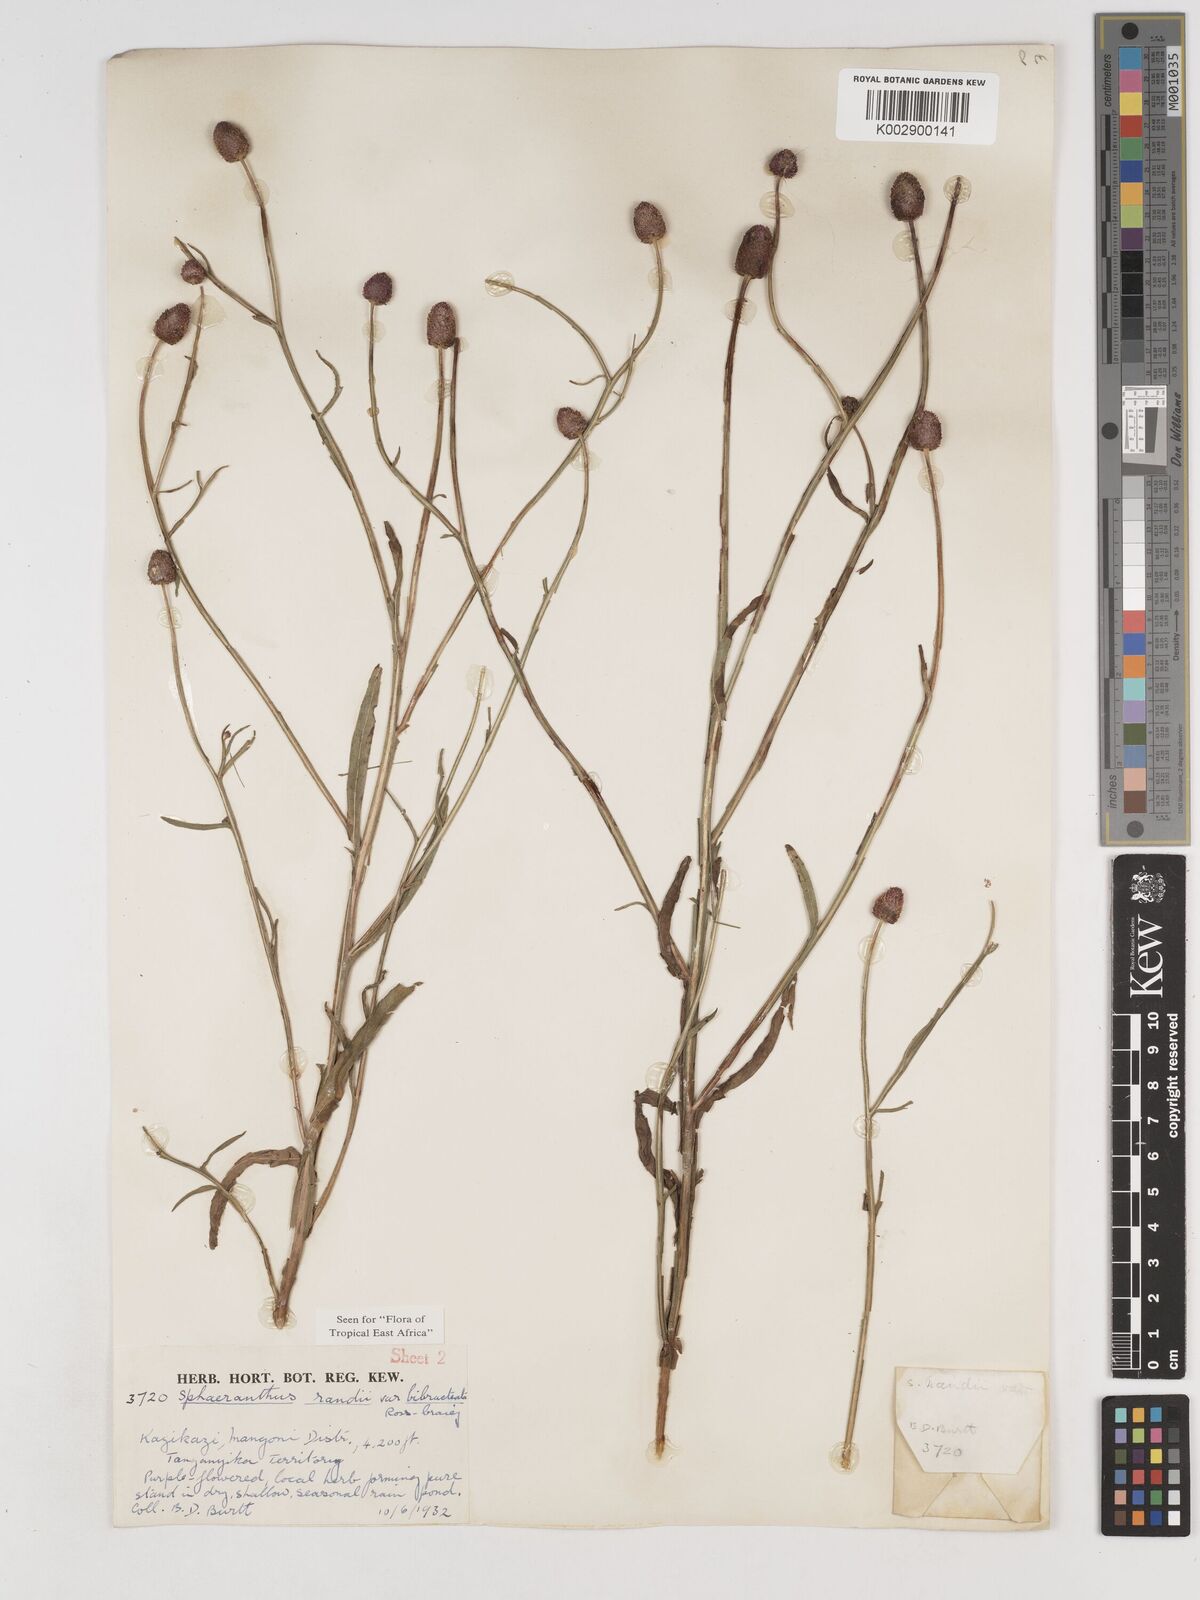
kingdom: Plantae
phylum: Tracheophyta
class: Magnoliopsida
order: Asterales
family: Asteraceae
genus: Sphaeranthus
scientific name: Sphaeranthus randii
